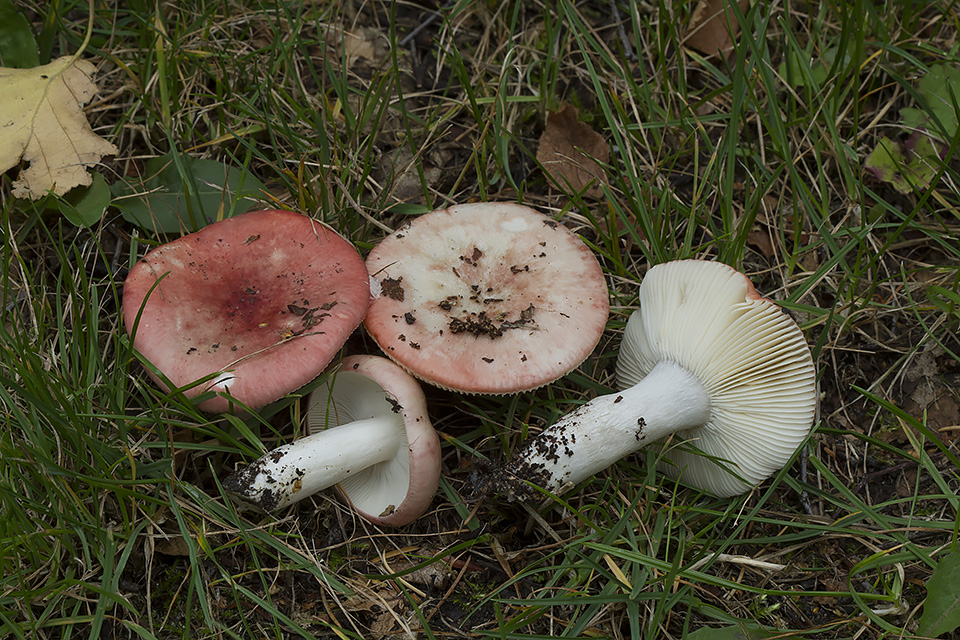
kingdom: Fungi
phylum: Basidiomycota
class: Agaricomycetes
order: Russulales
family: Russulaceae
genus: Russula
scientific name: Russula depallens
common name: falmende skørhat
